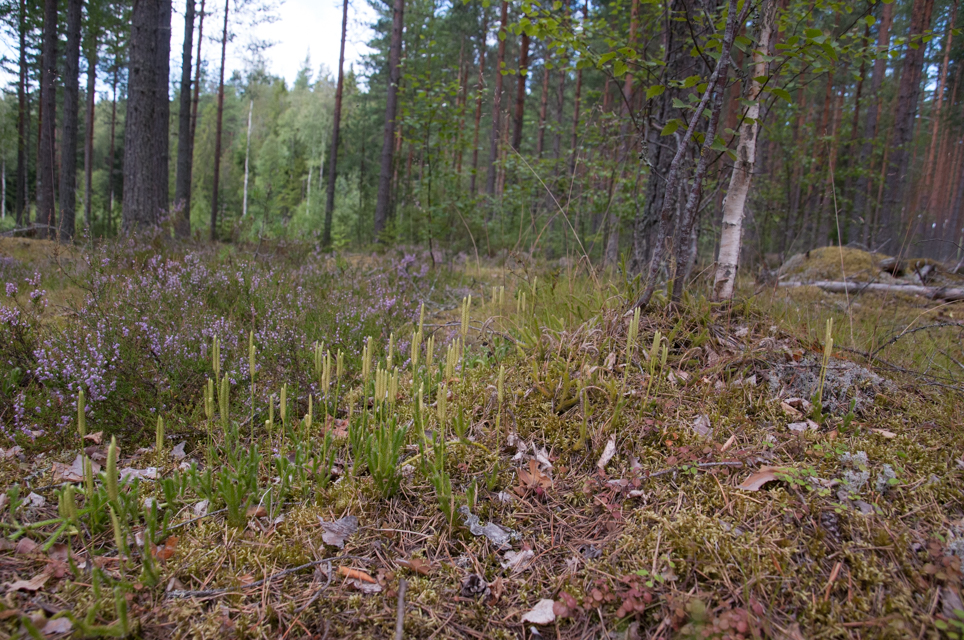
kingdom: Plantae
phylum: Tracheophyta
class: Lycopodiopsida
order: Lycopodiales
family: Lycopodiaceae
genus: Lycopodium
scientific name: Lycopodium clavatum
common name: Stag's-horn clubmoss
